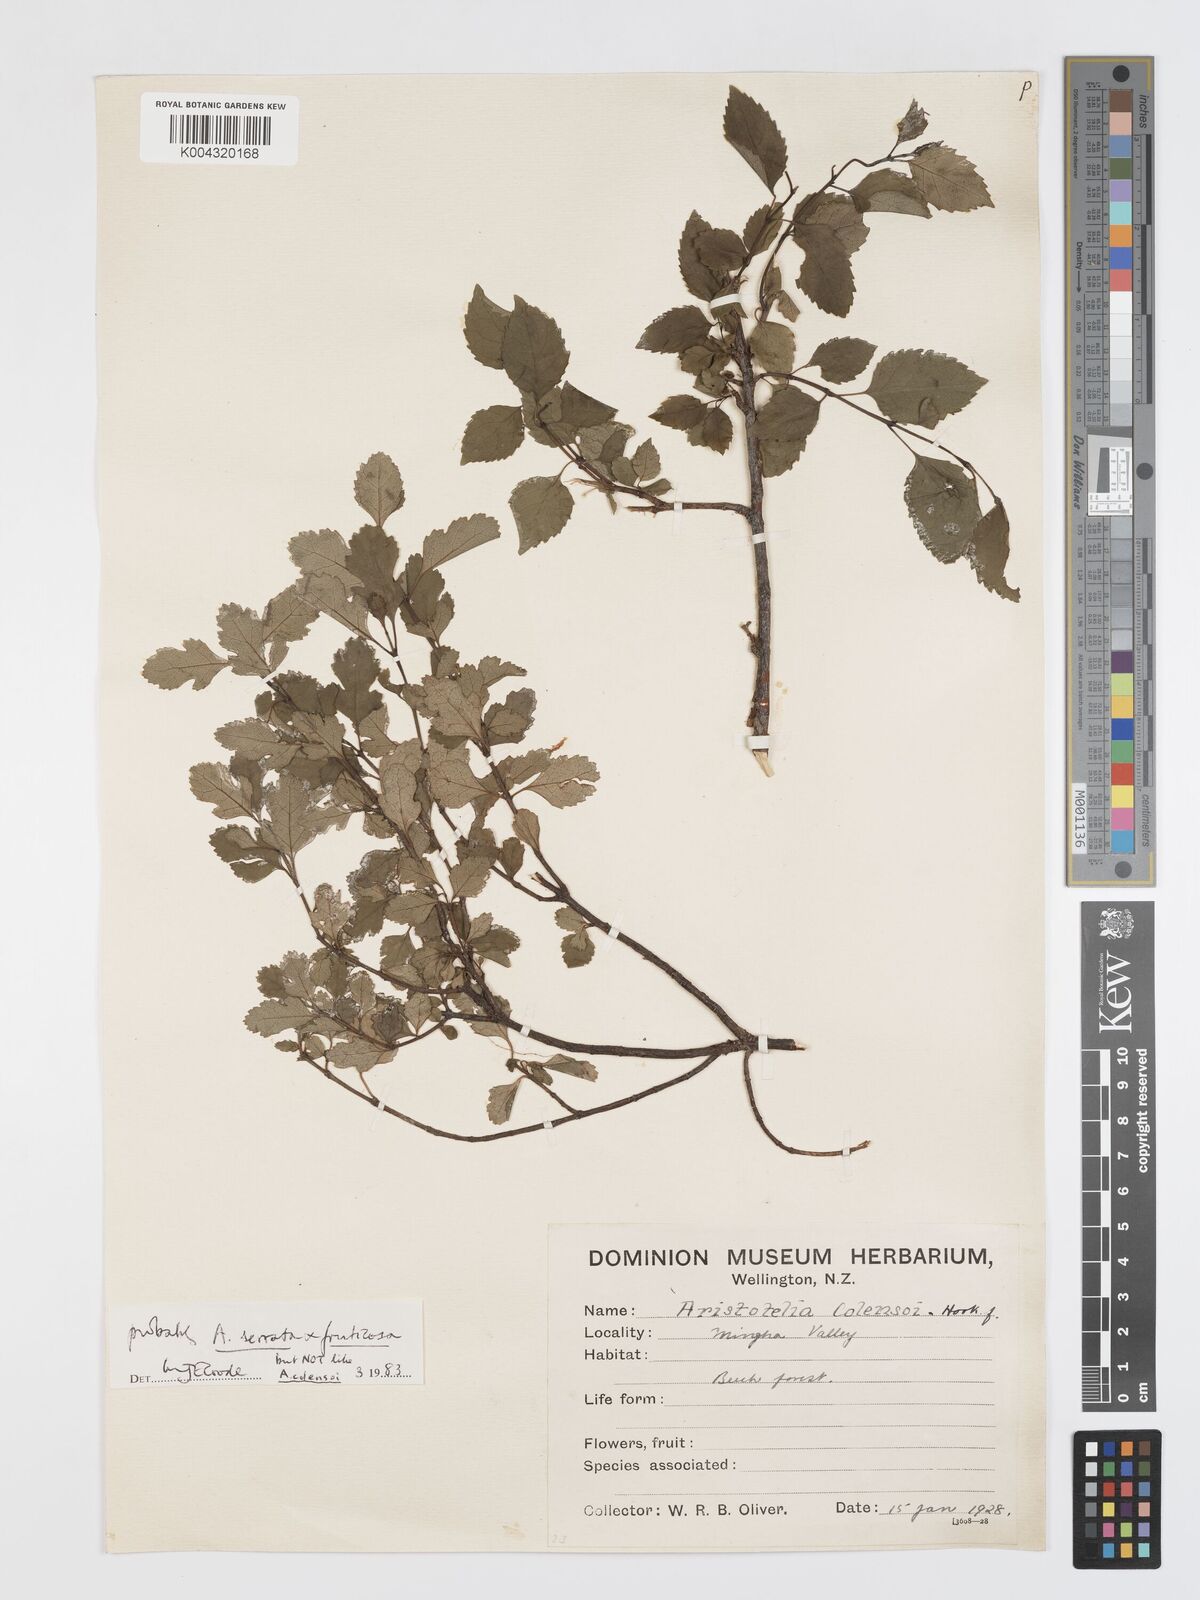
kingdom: Plantae
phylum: Tracheophyta
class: Magnoliopsida
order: Oxalidales
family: Elaeocarpaceae
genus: Aristotelia
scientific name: Aristotelia fruticosa
